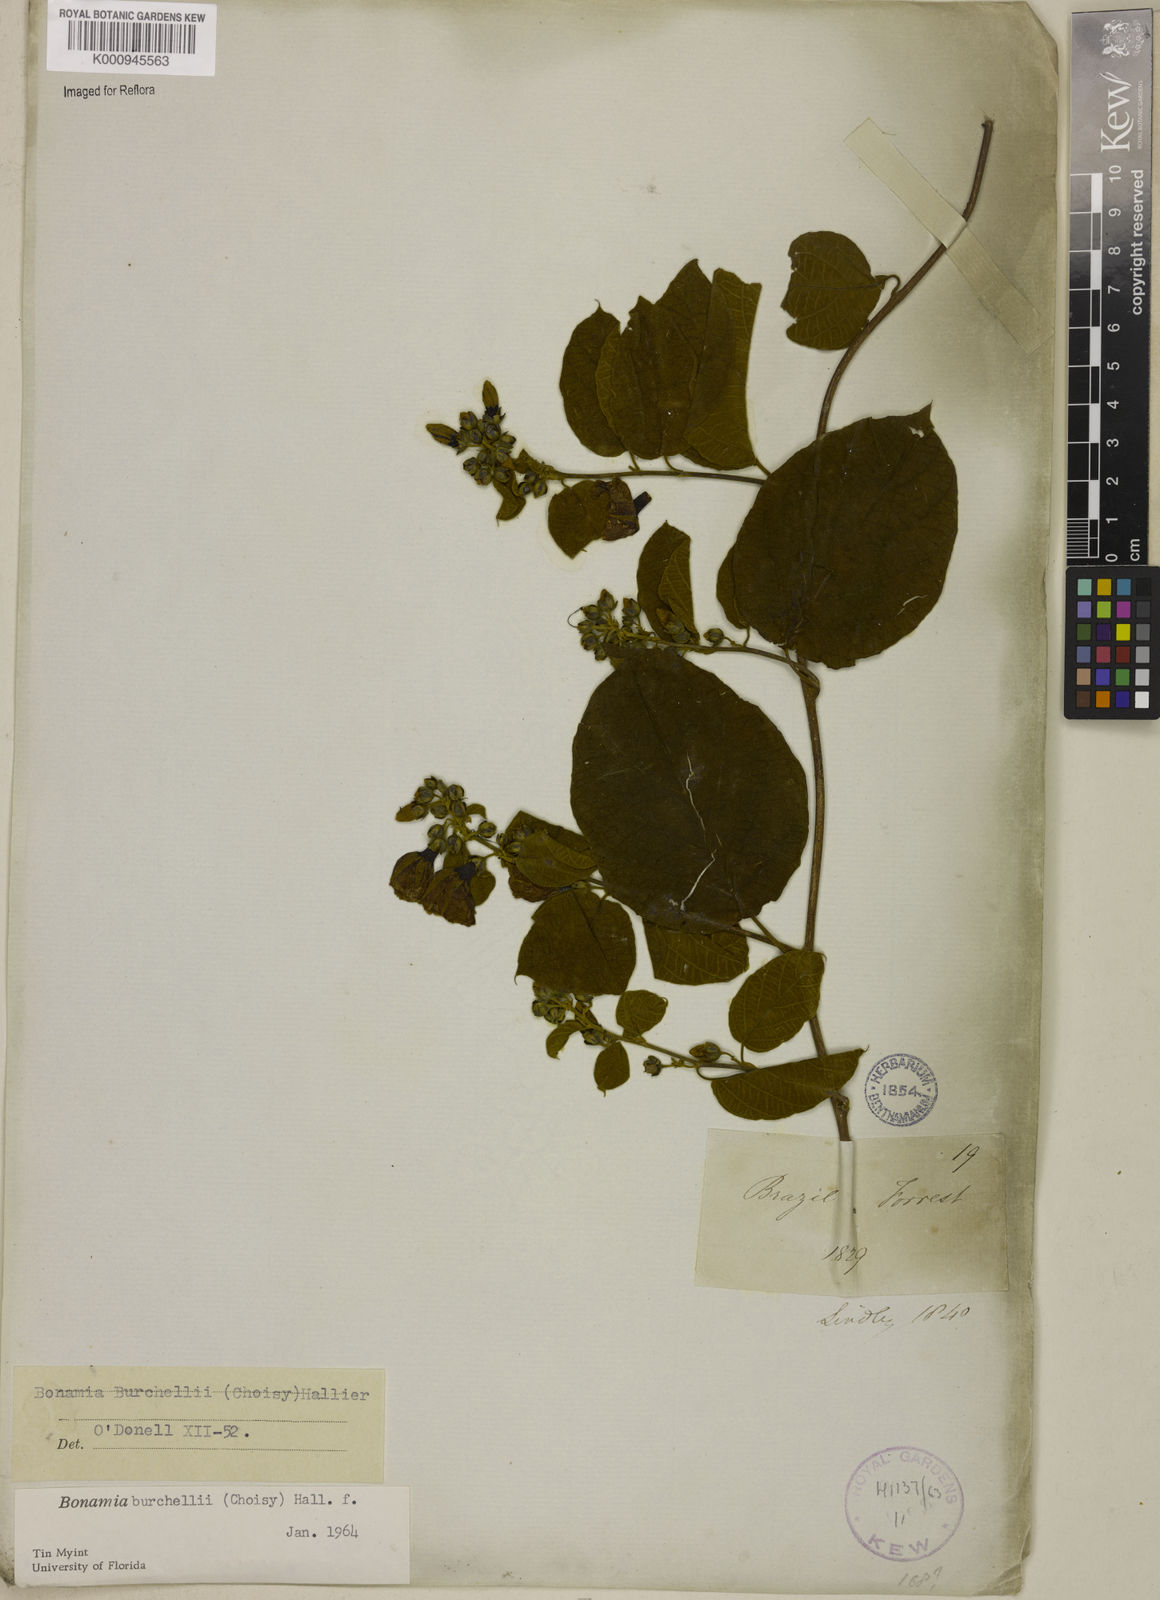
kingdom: Plantae
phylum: Tracheophyta
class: Magnoliopsida
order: Solanales
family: Convolvulaceae
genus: Bonamia
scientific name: Bonamia agrostopolis
